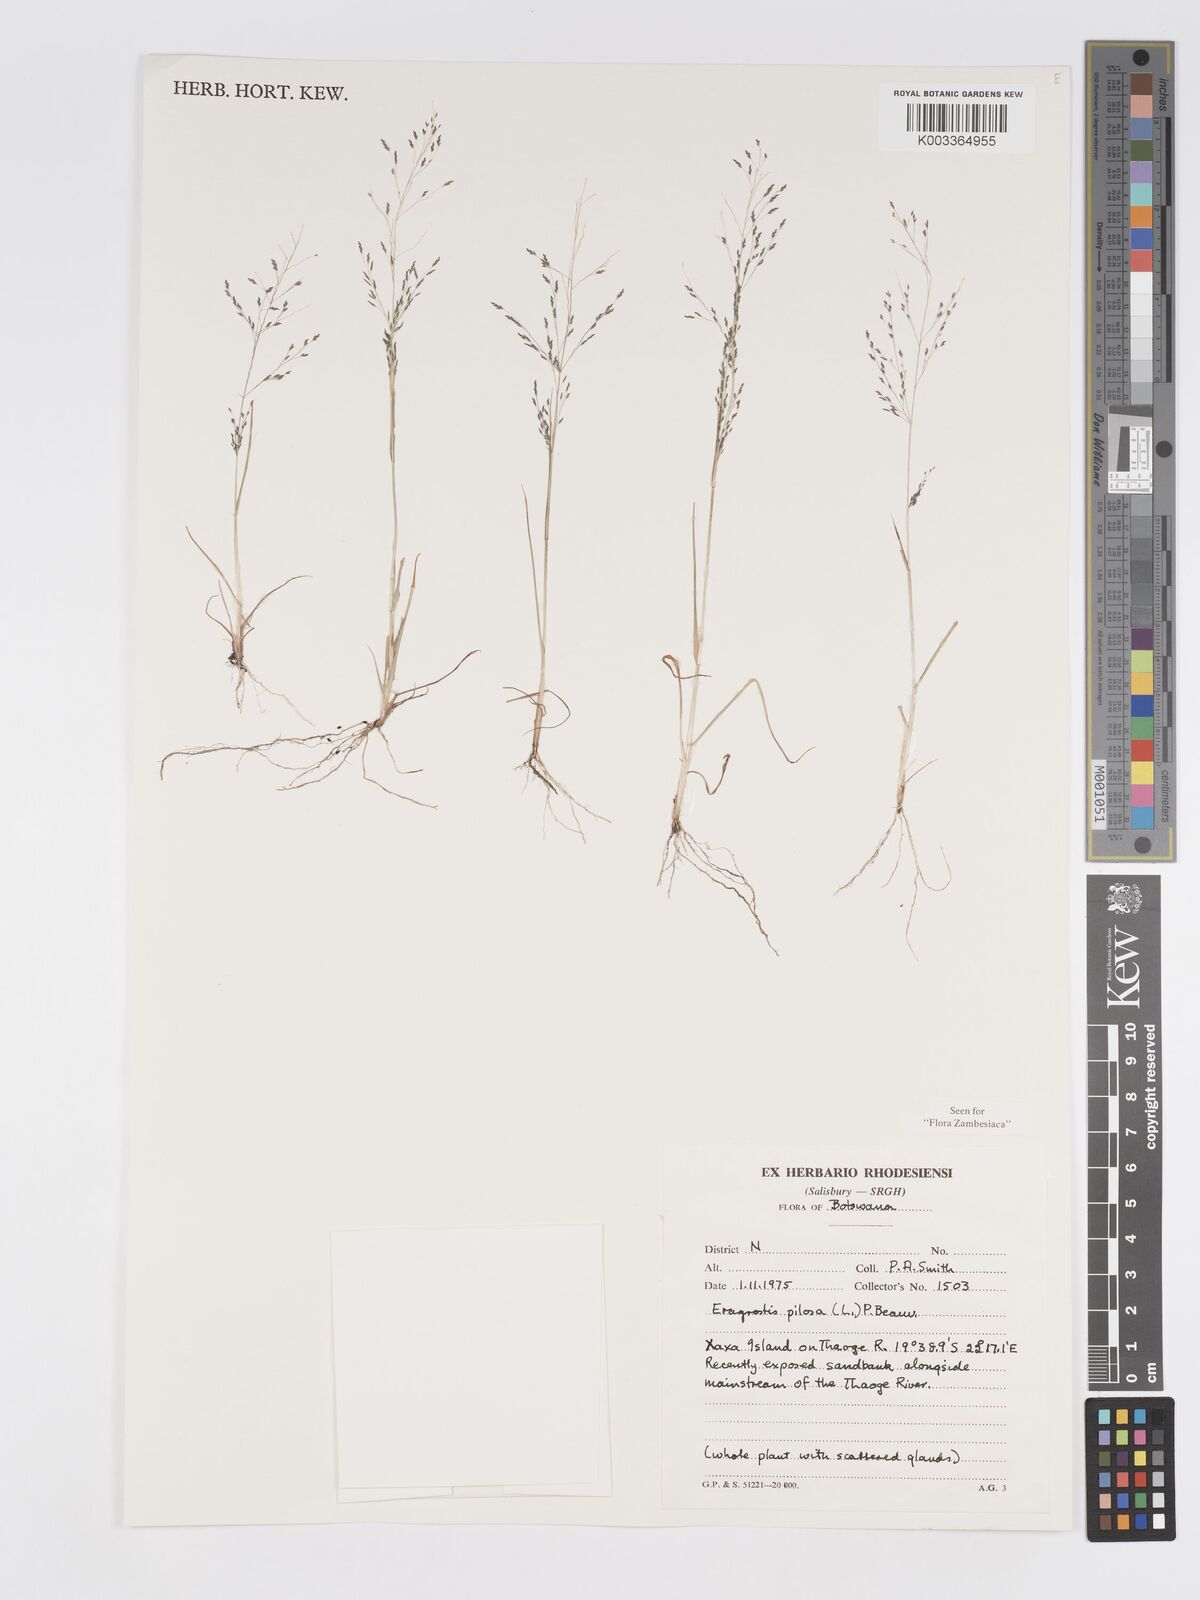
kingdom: Plantae
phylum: Tracheophyta
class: Liliopsida
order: Poales
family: Poaceae
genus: Eragrostis
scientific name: Eragrostis pilosa
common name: Indian lovegrass
